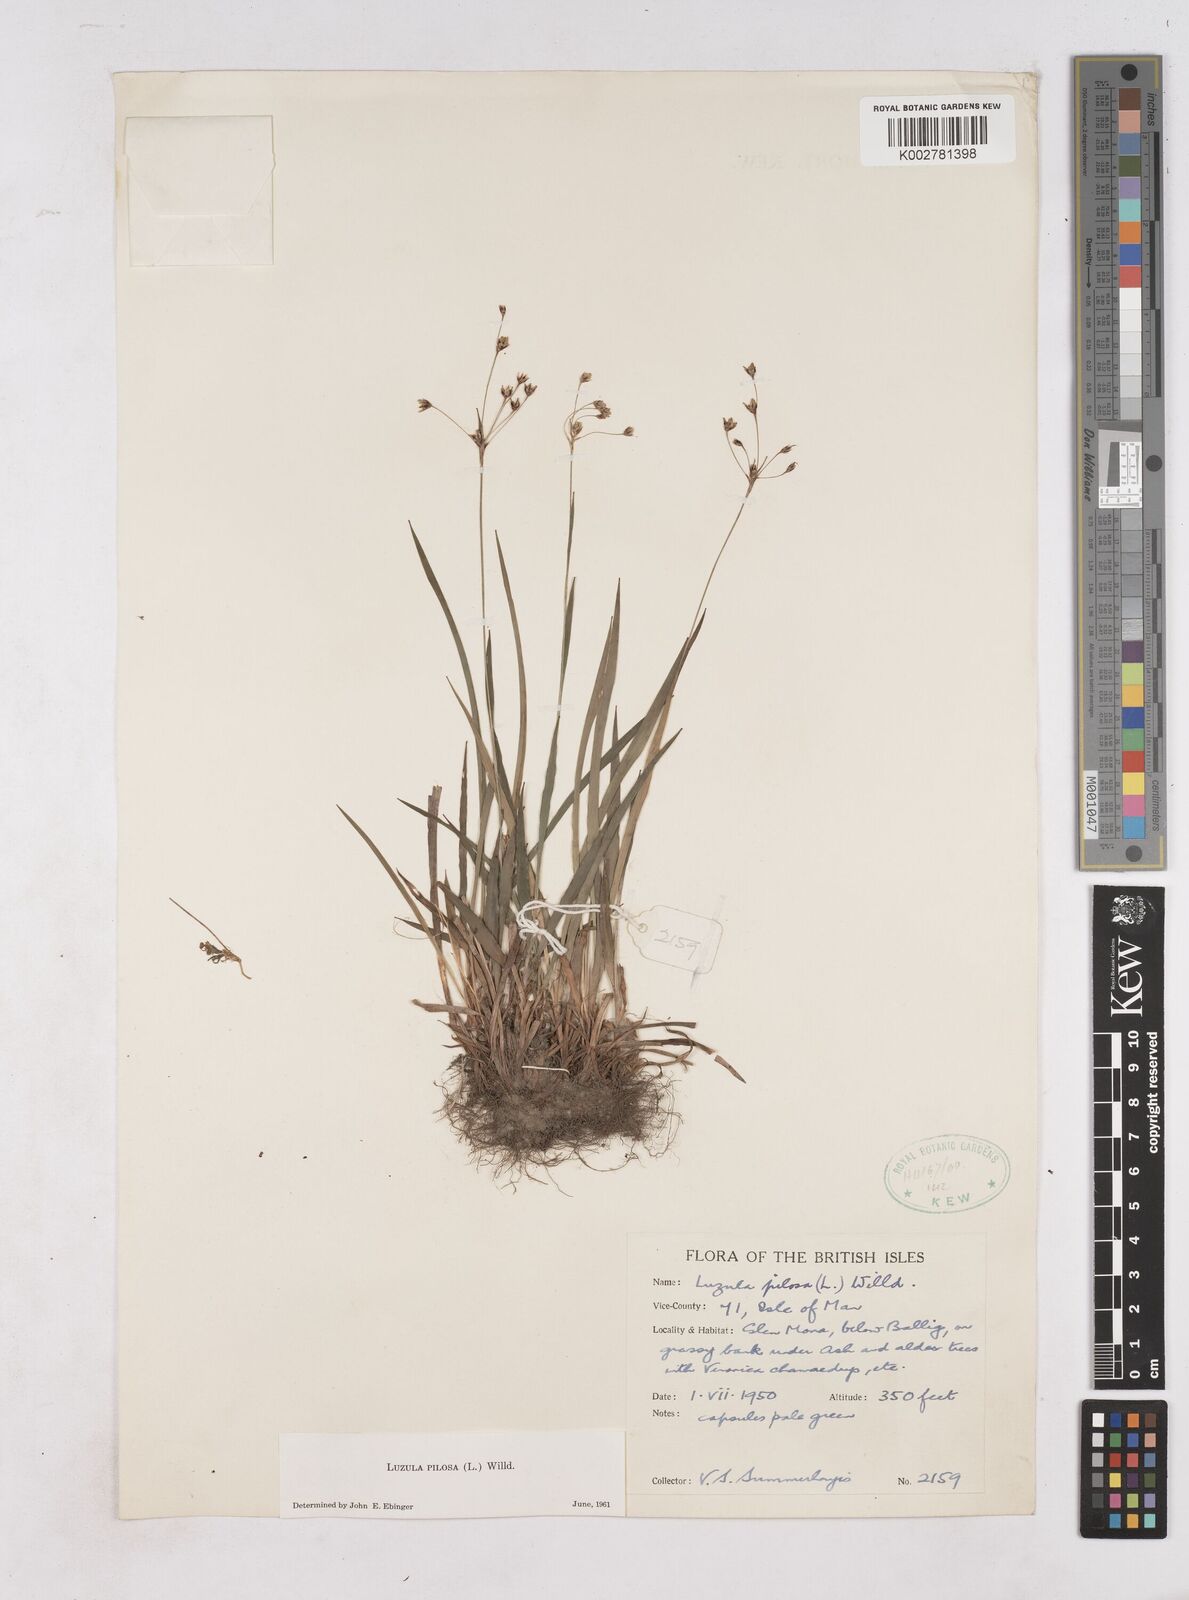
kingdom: Plantae
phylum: Tracheophyta
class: Liliopsida
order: Poales
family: Juncaceae
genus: Luzula
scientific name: Luzula pilosa
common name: Hairy wood-rush
